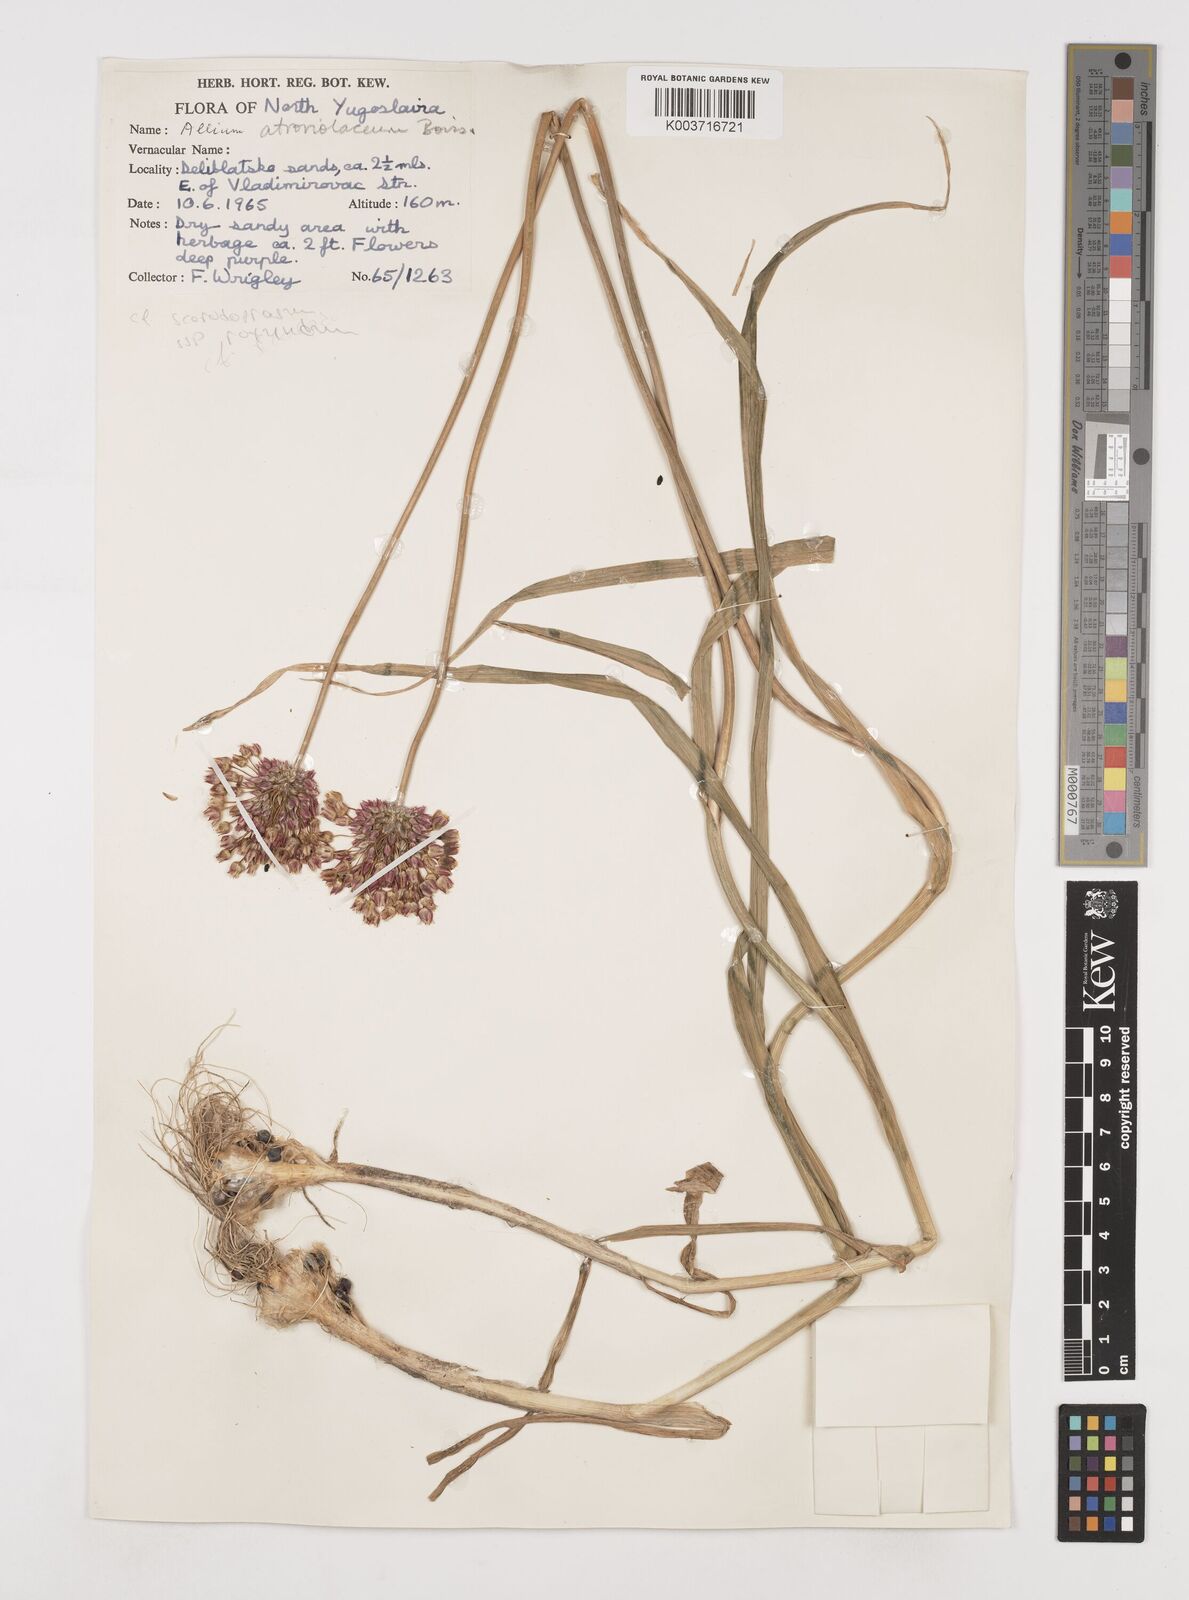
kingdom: Plantae
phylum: Tracheophyta
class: Liliopsida
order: Asparagales
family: Amaryllidaceae
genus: Allium
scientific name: Allium sphaerocephalon
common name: Round-headed leek
